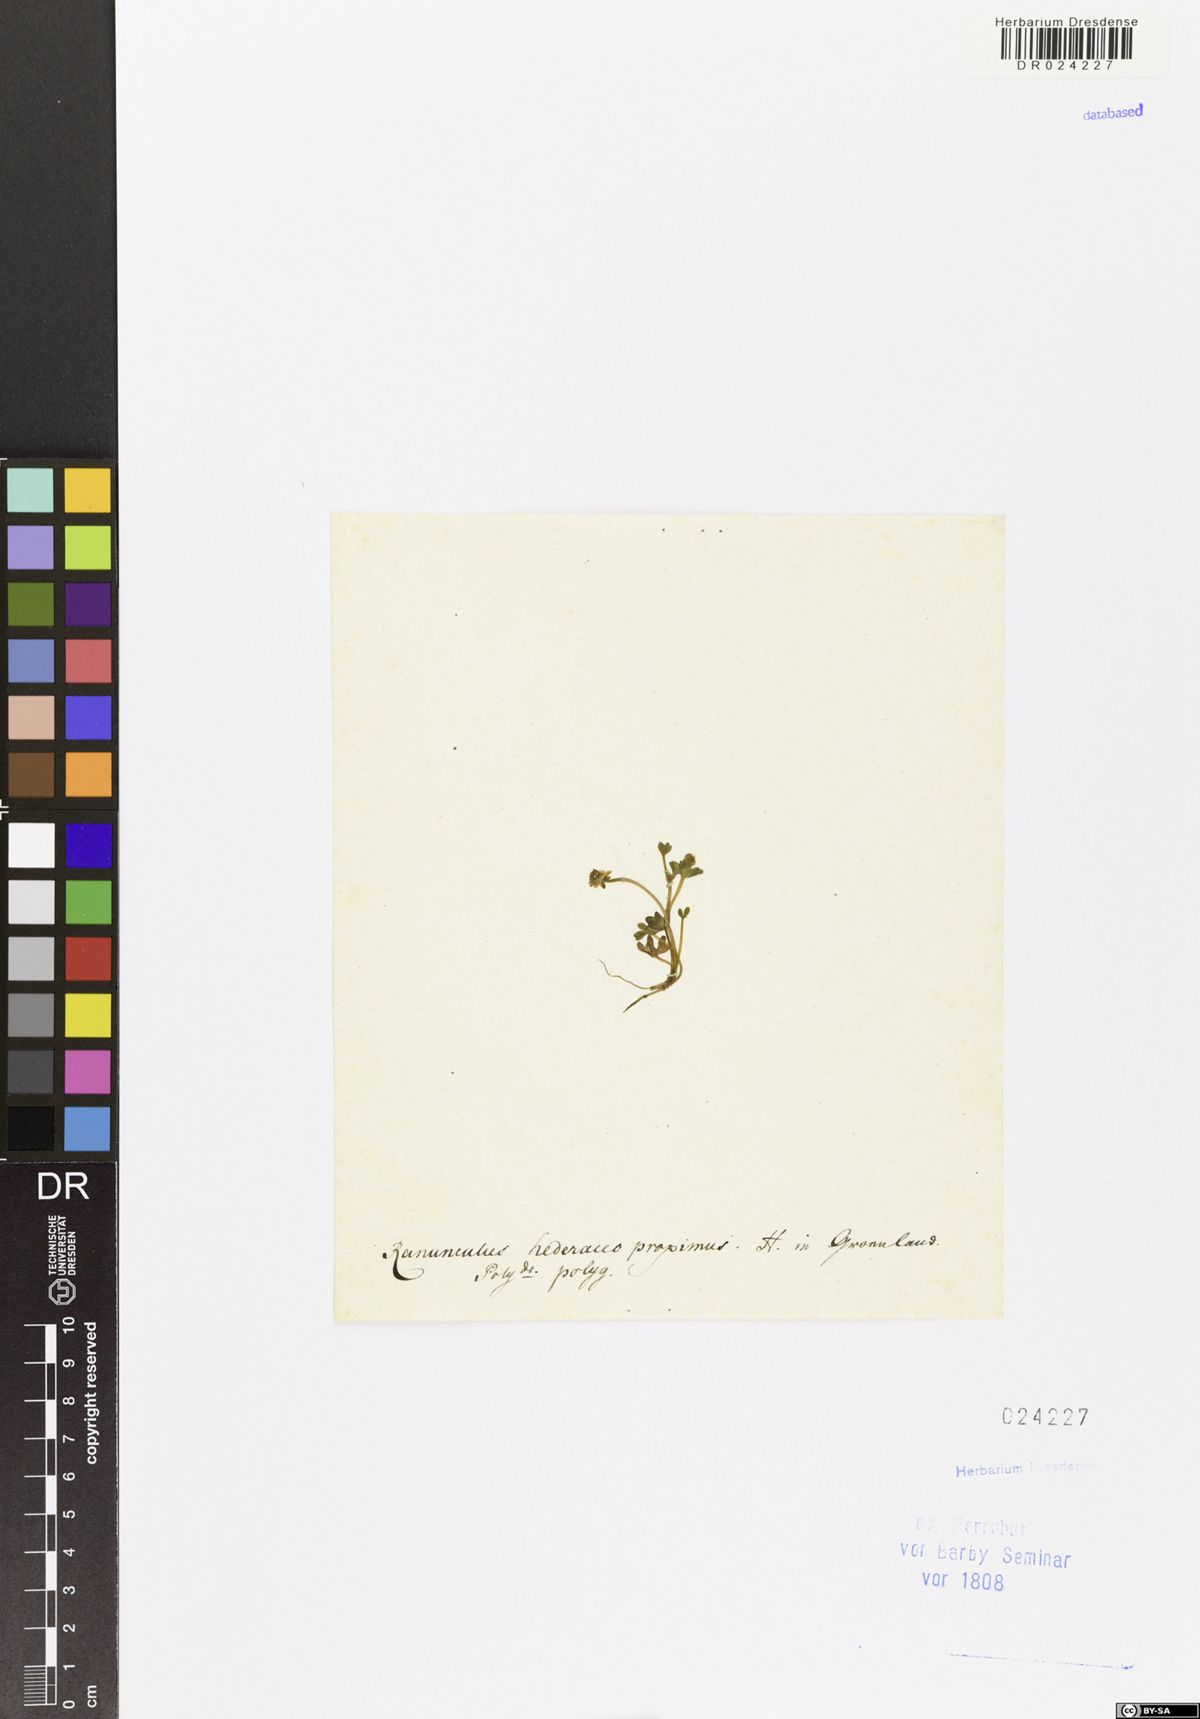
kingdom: Plantae
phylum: Tracheophyta
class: Magnoliopsida
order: Ranunculales
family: Ranunculaceae
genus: Ranunculus
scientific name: Ranunculus hyperboreus
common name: Arctic buttercup
